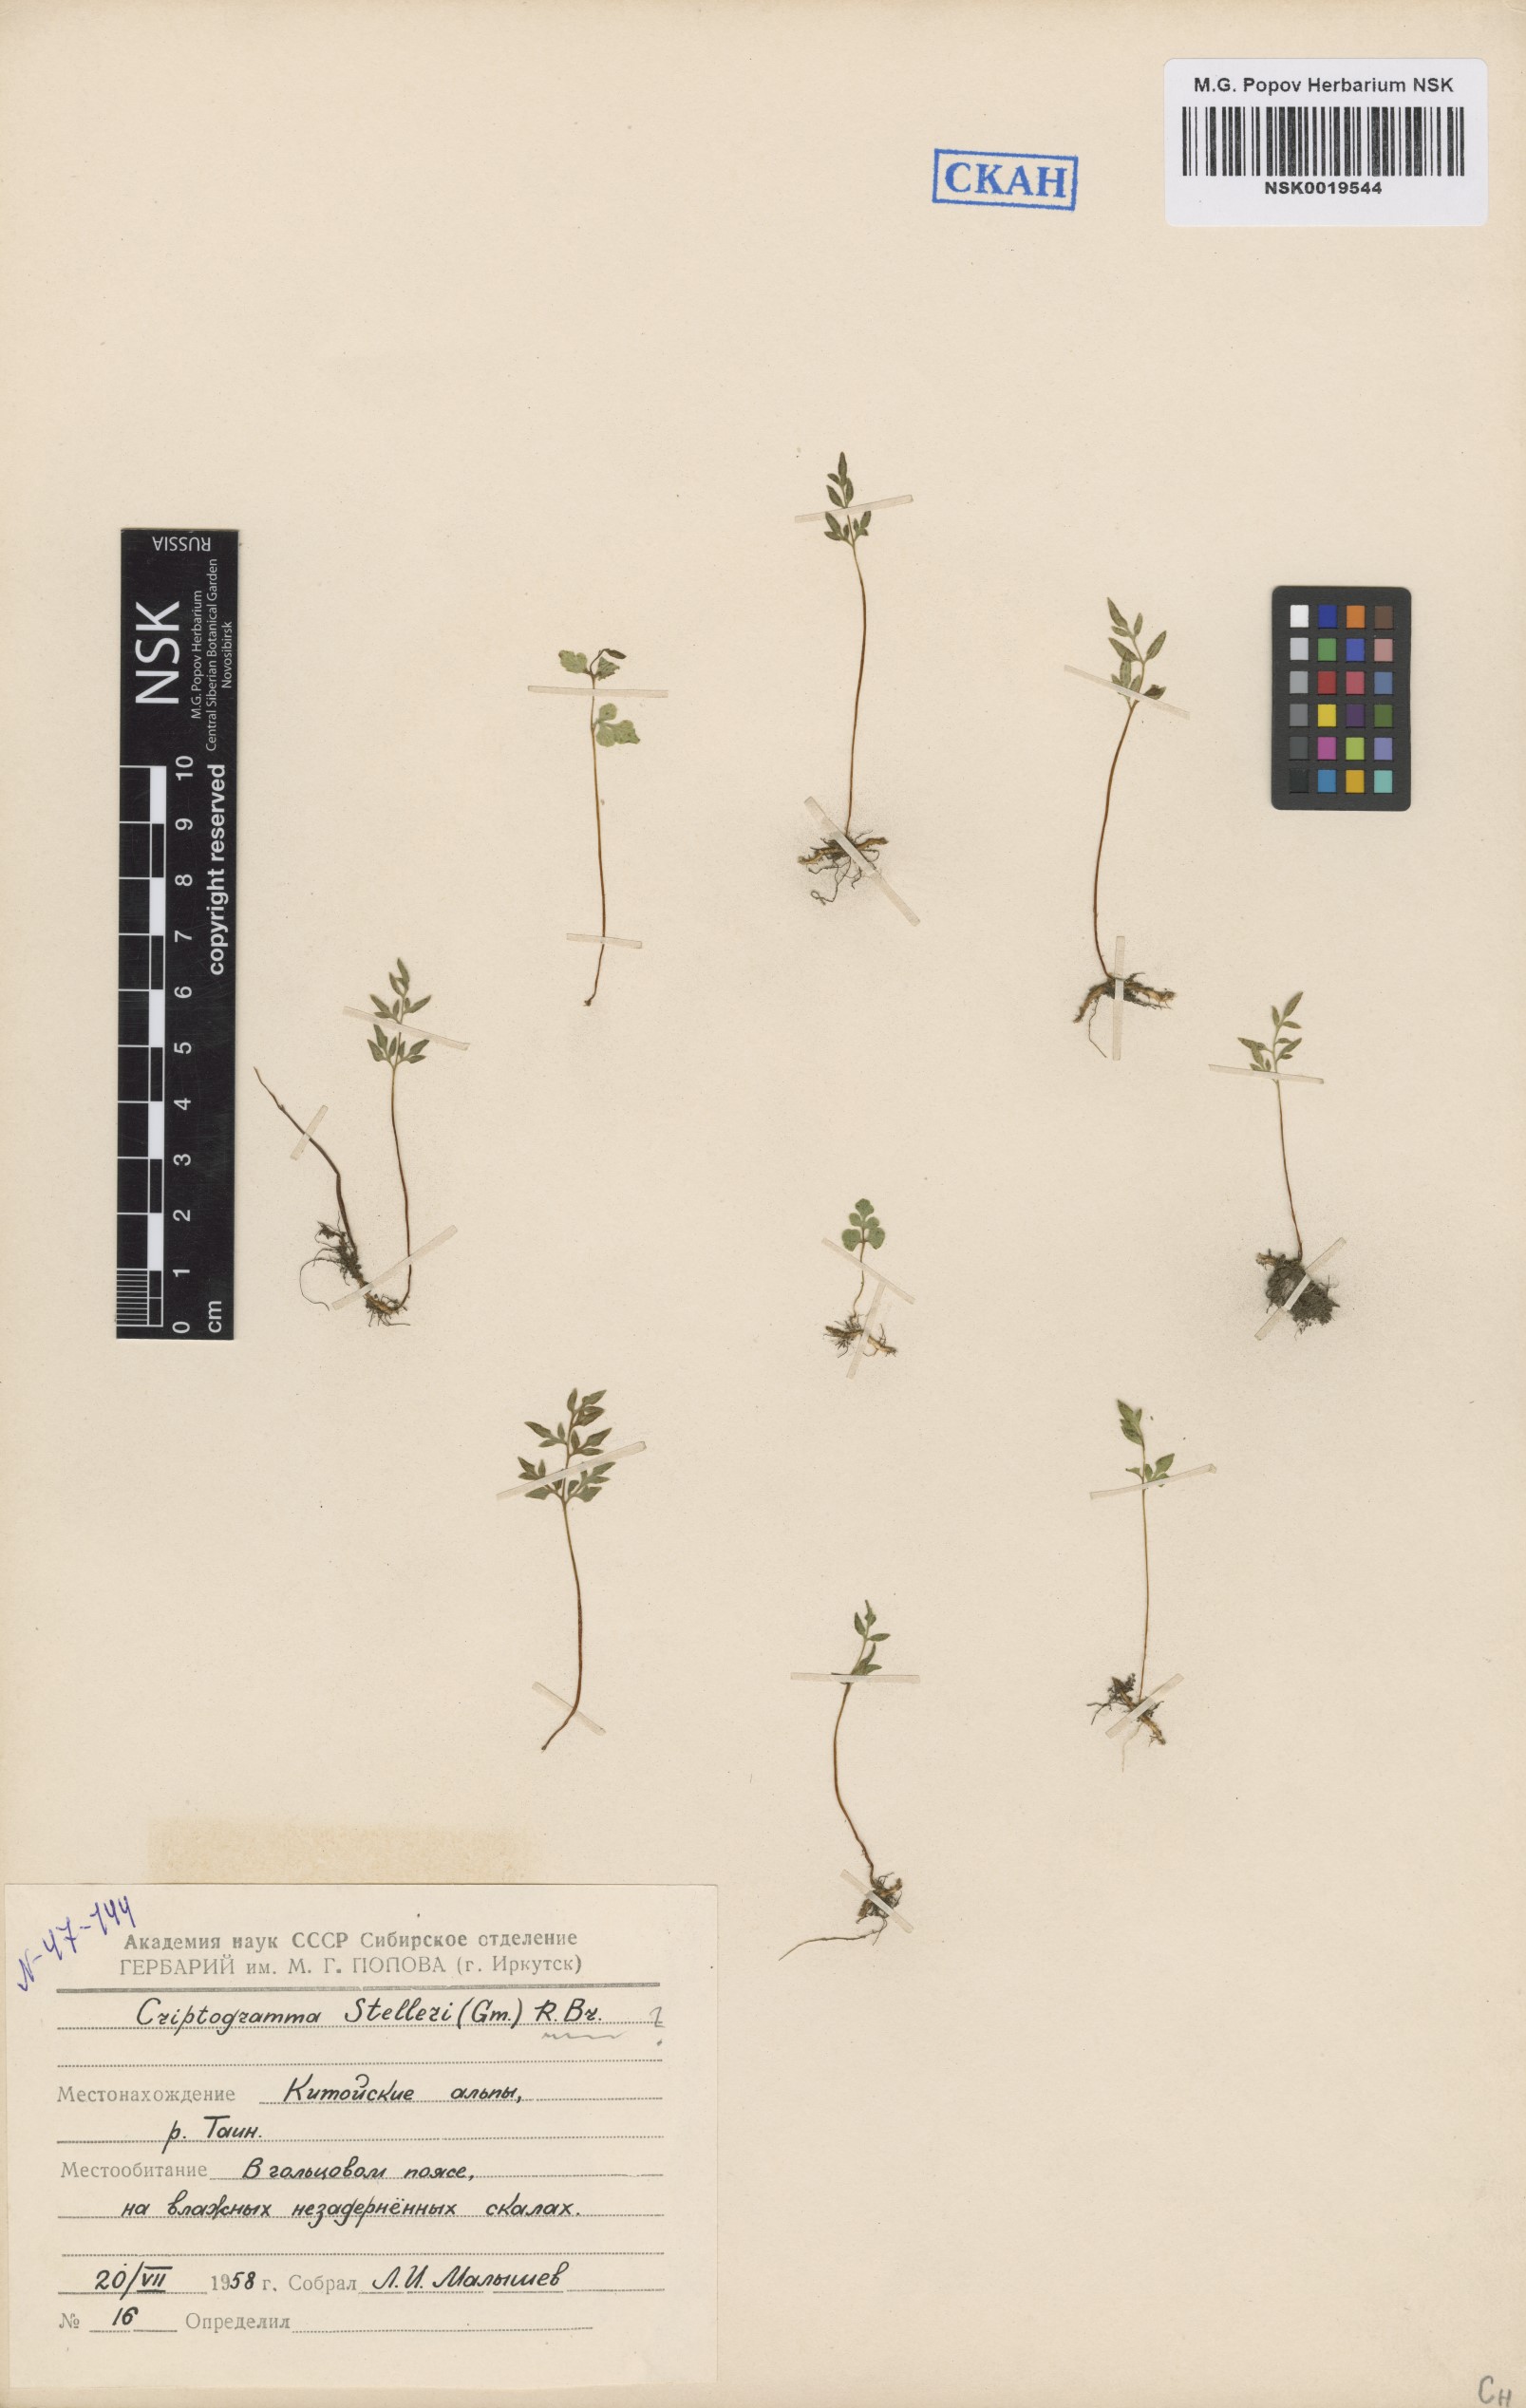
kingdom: Plantae
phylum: Tracheophyta
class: Polypodiopsida
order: Polypodiales
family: Pteridaceae
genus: Cryptogramma
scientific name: Cryptogramma stelleri
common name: Cliff-brake
